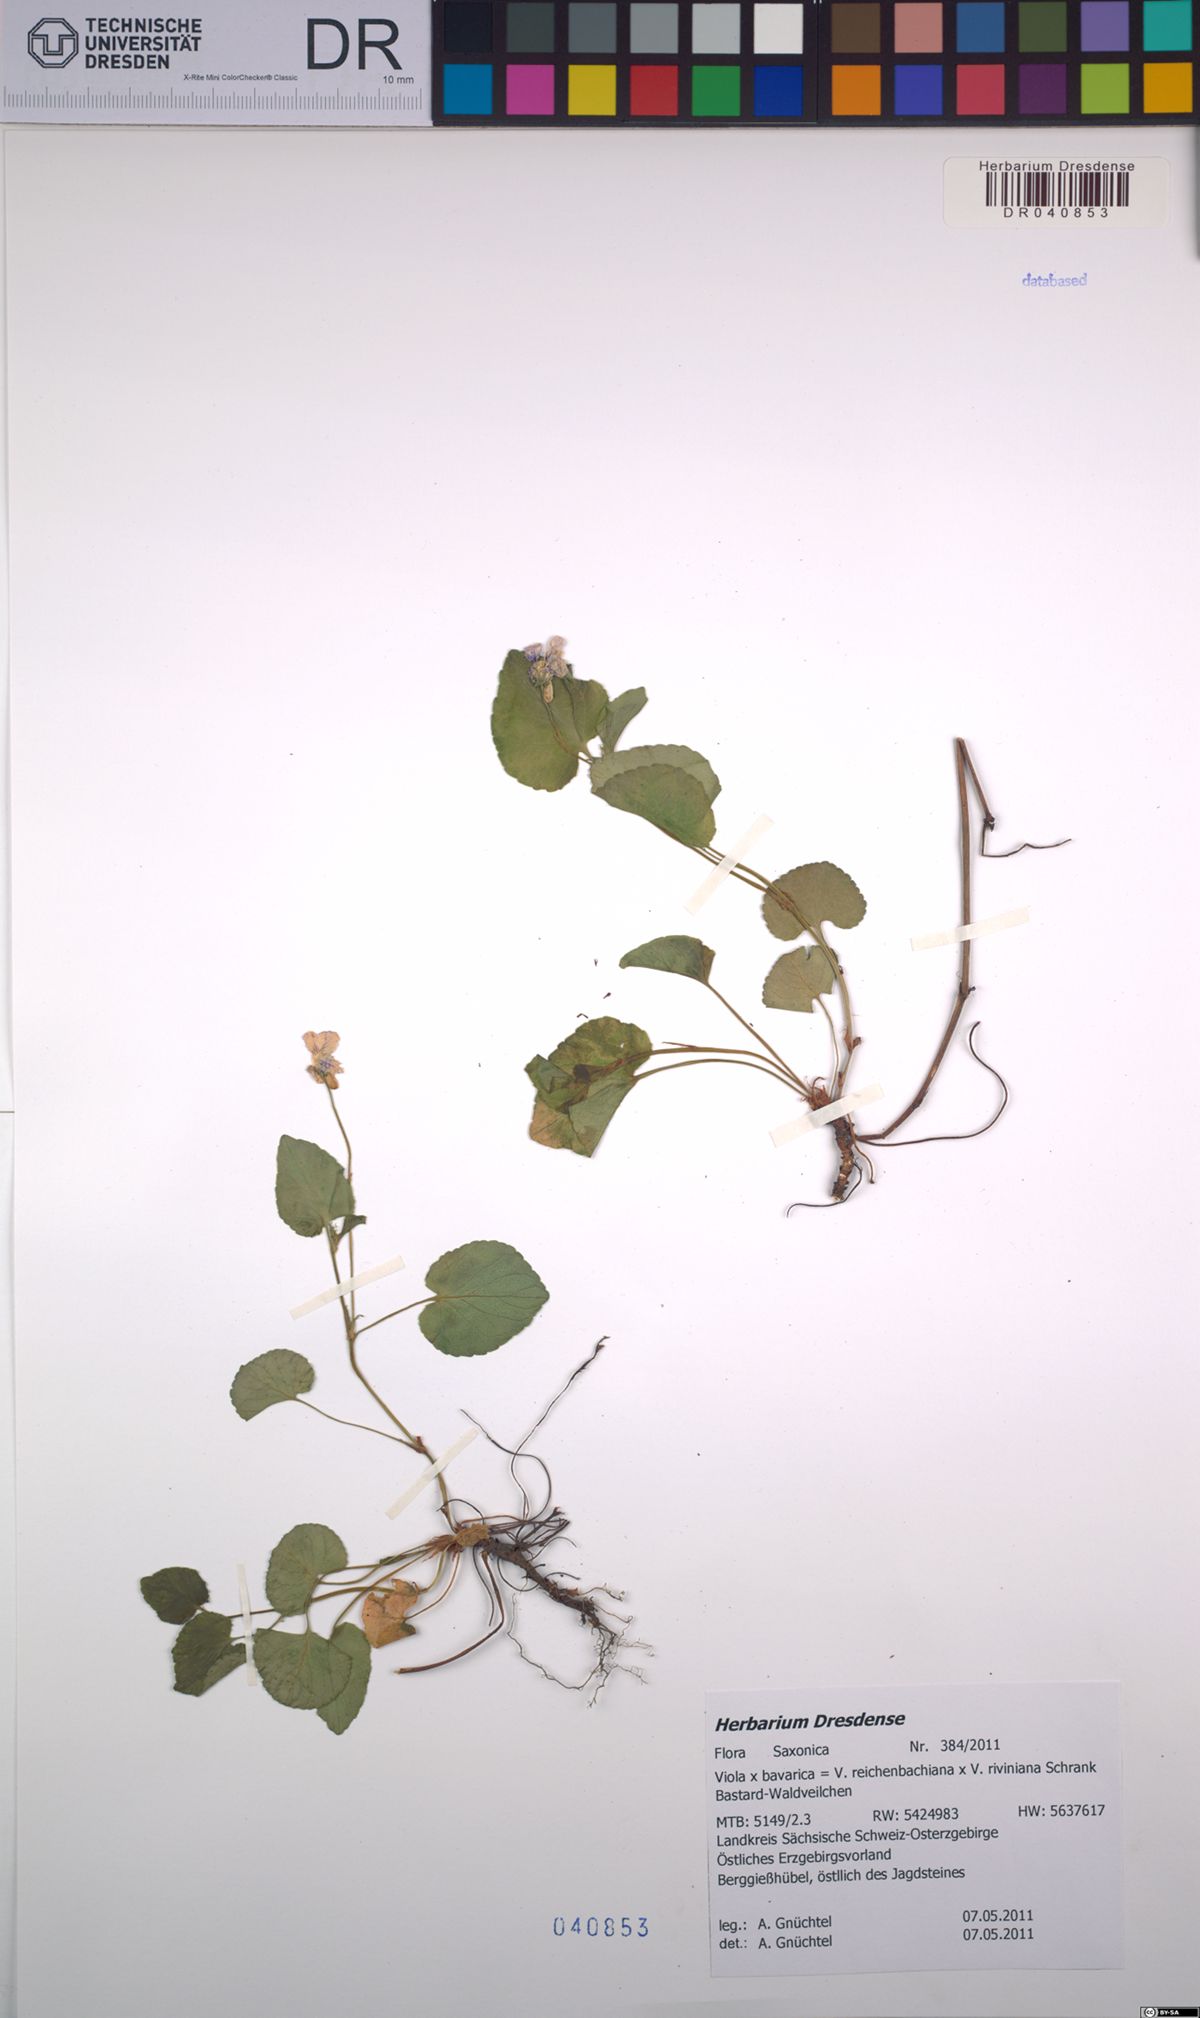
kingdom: Plantae
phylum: Tracheophyta
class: Magnoliopsida
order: Malpighiales
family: Violaceae
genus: Viola
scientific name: Viola bavarica
